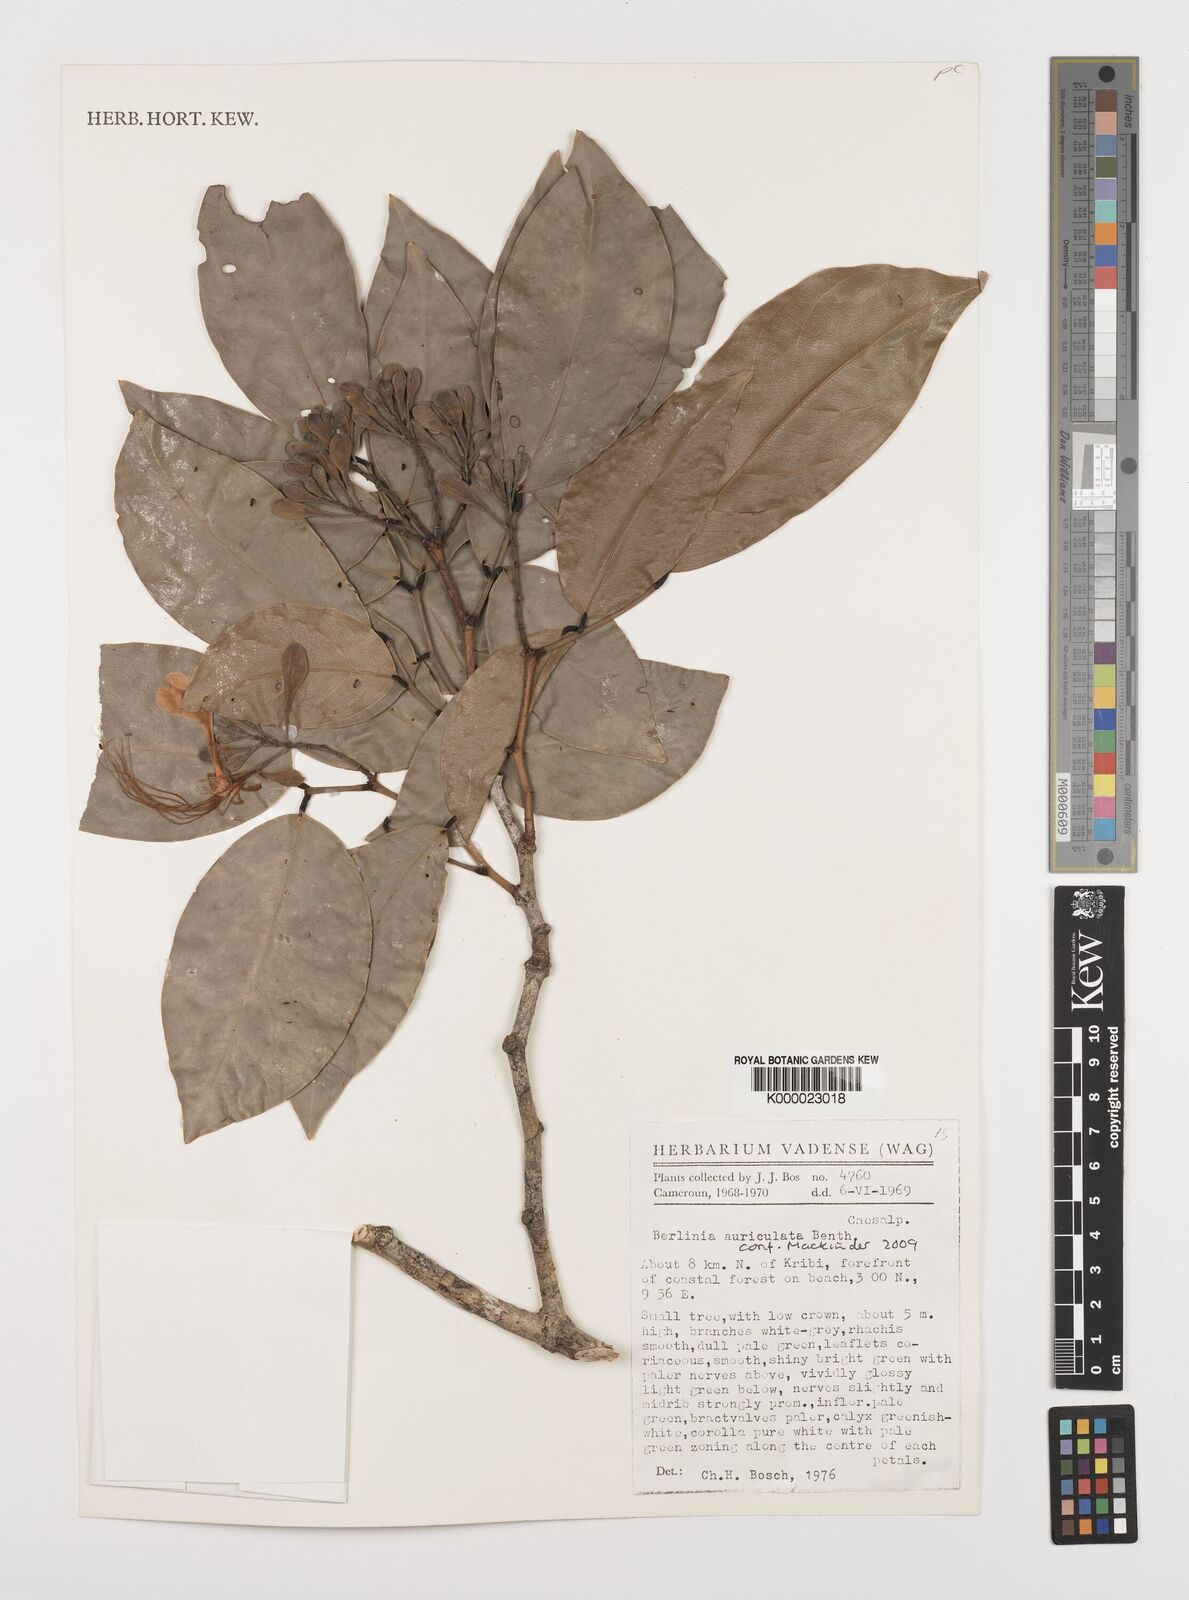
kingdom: Plantae
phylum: Tracheophyta
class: Magnoliopsida
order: Fabales
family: Fabaceae
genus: Berlinia
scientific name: Berlinia auriculata
